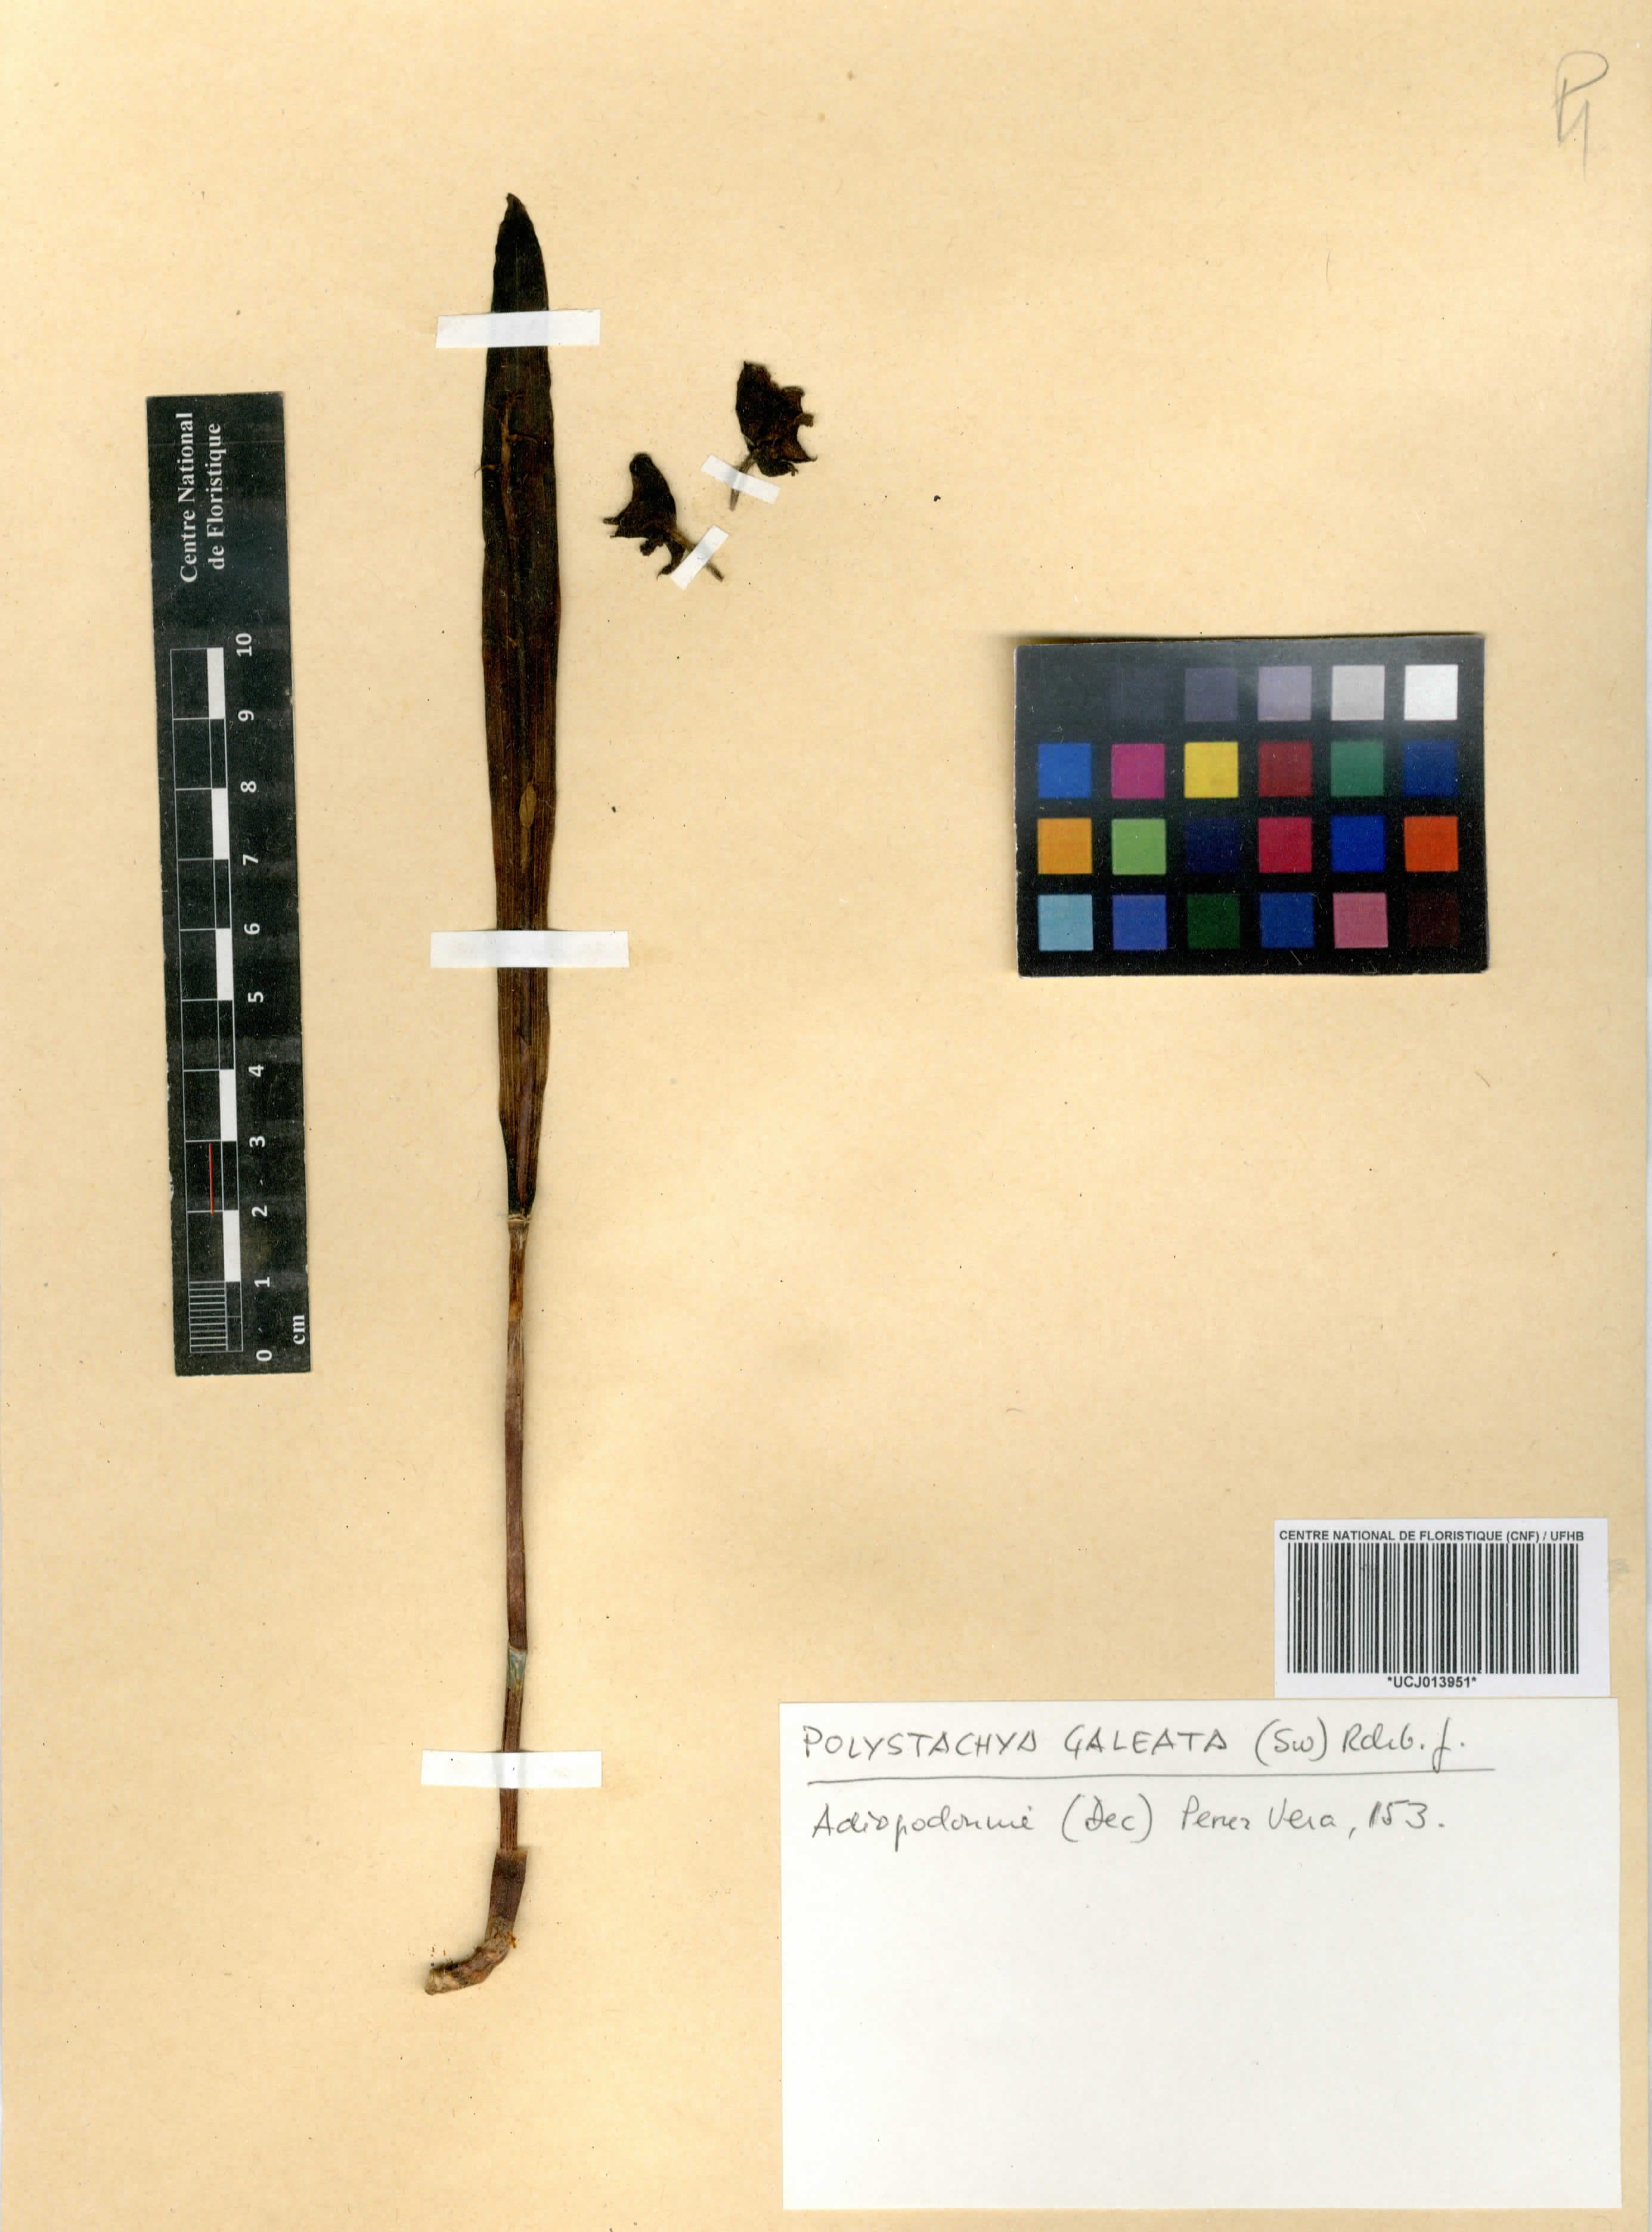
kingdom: Plantae
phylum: Tracheophyta
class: Liliopsida
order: Asparagales
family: Orchidaceae
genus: Polystachya
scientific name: Polystachya galeata
